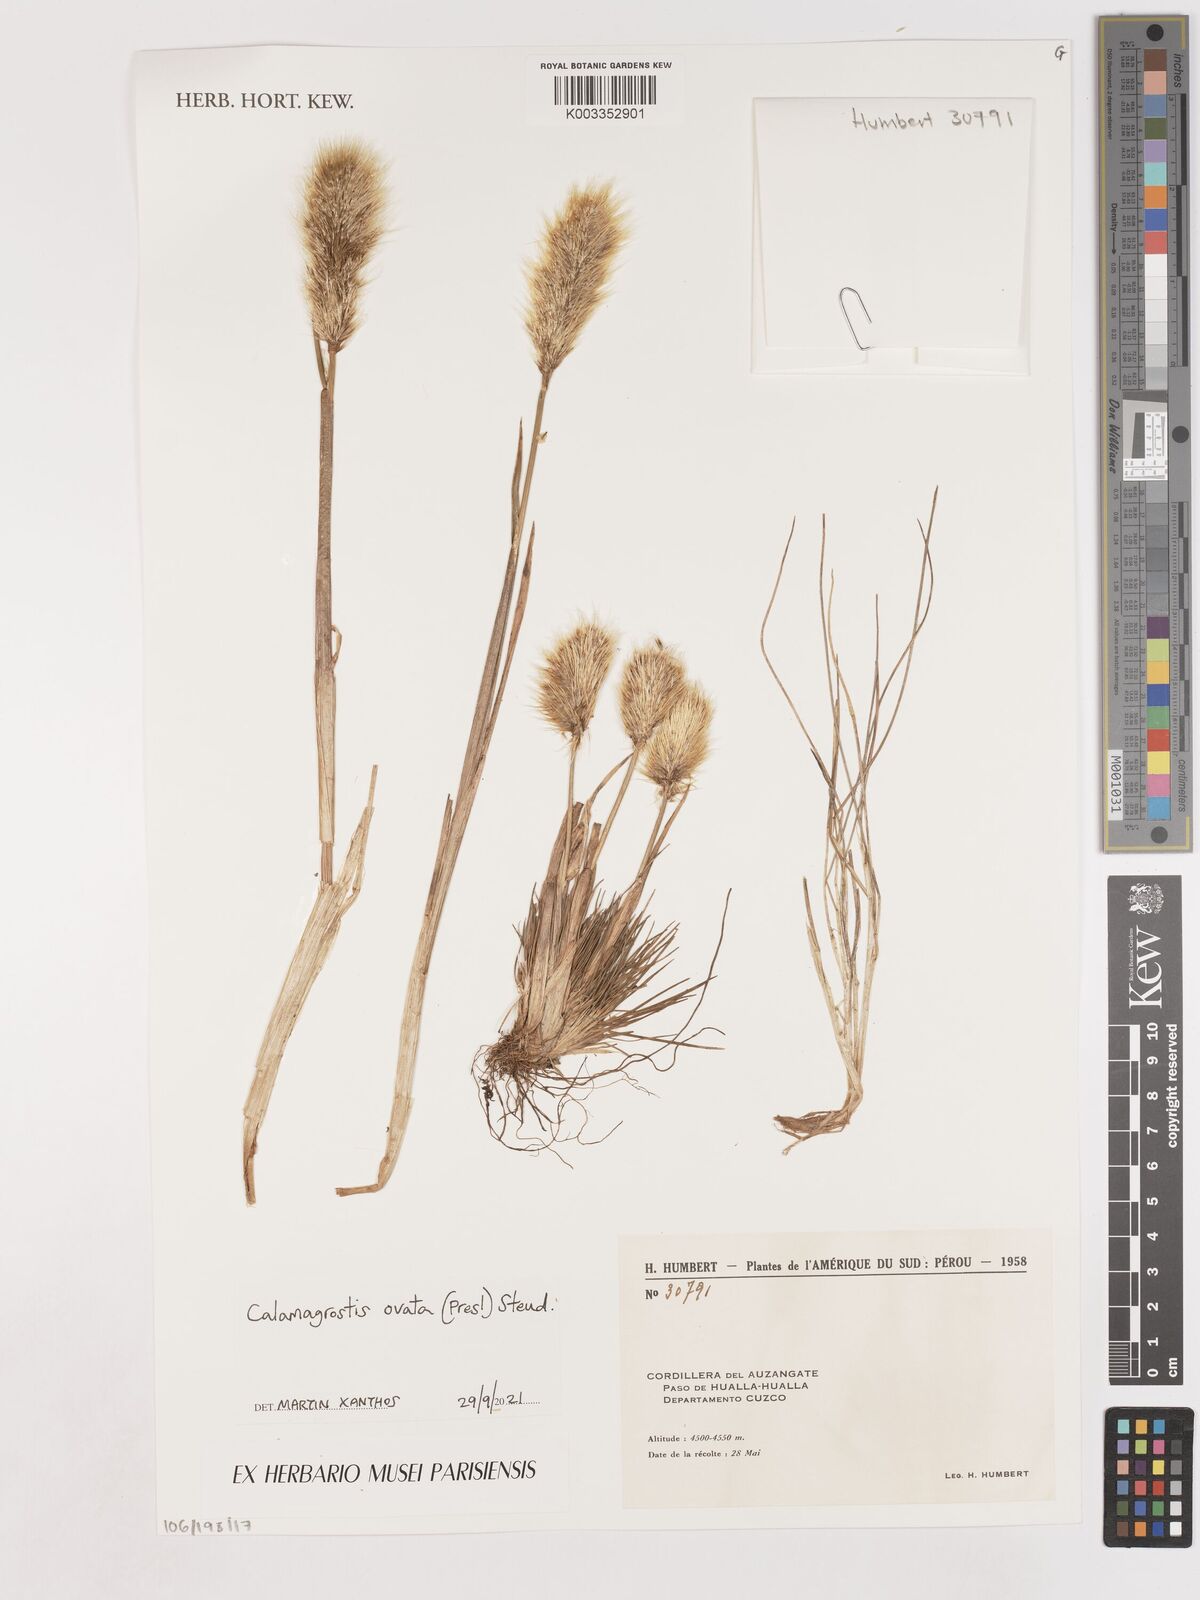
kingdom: Plantae
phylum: Tracheophyta
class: Liliopsida
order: Poales
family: Poaceae
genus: Deschampsia
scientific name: Deschampsia ovata
